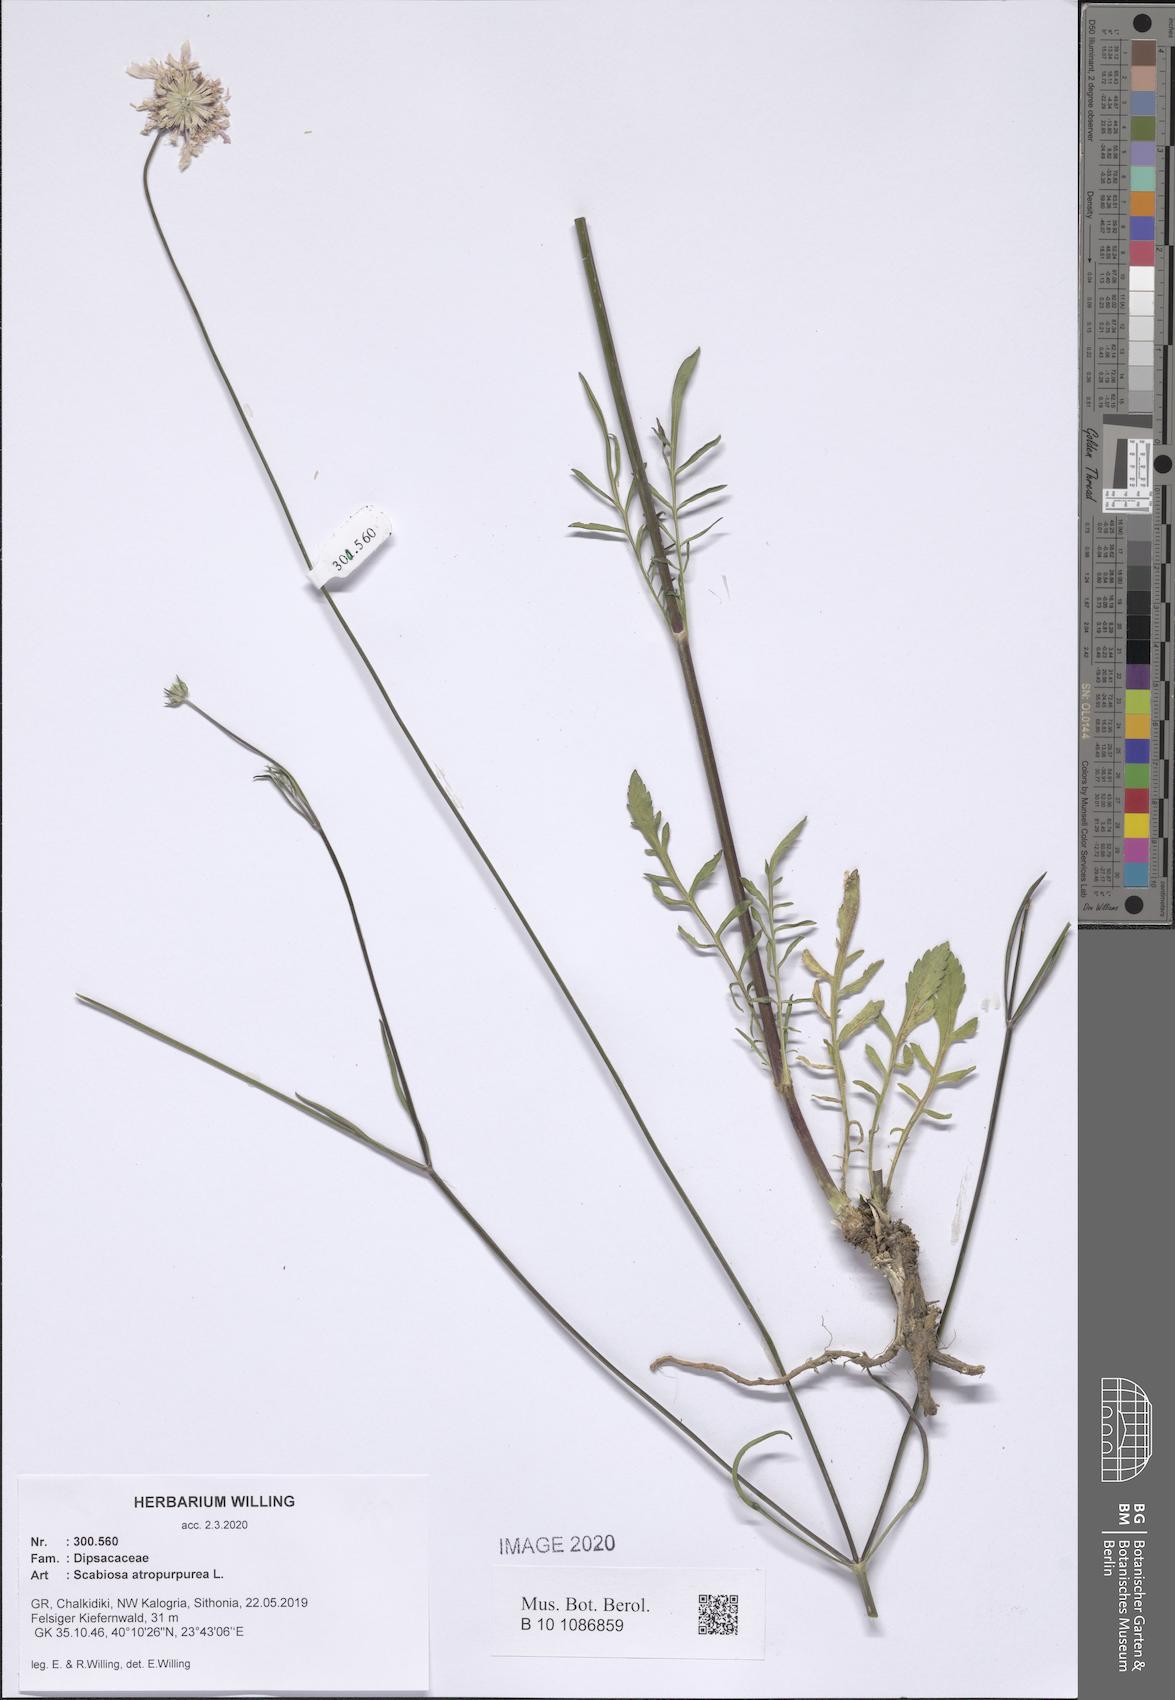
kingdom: Plantae
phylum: Tracheophyta
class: Magnoliopsida
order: Dipsacales
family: Caprifoliaceae
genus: Sixalix
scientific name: Sixalix atropurpurea
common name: Sweet scabious
